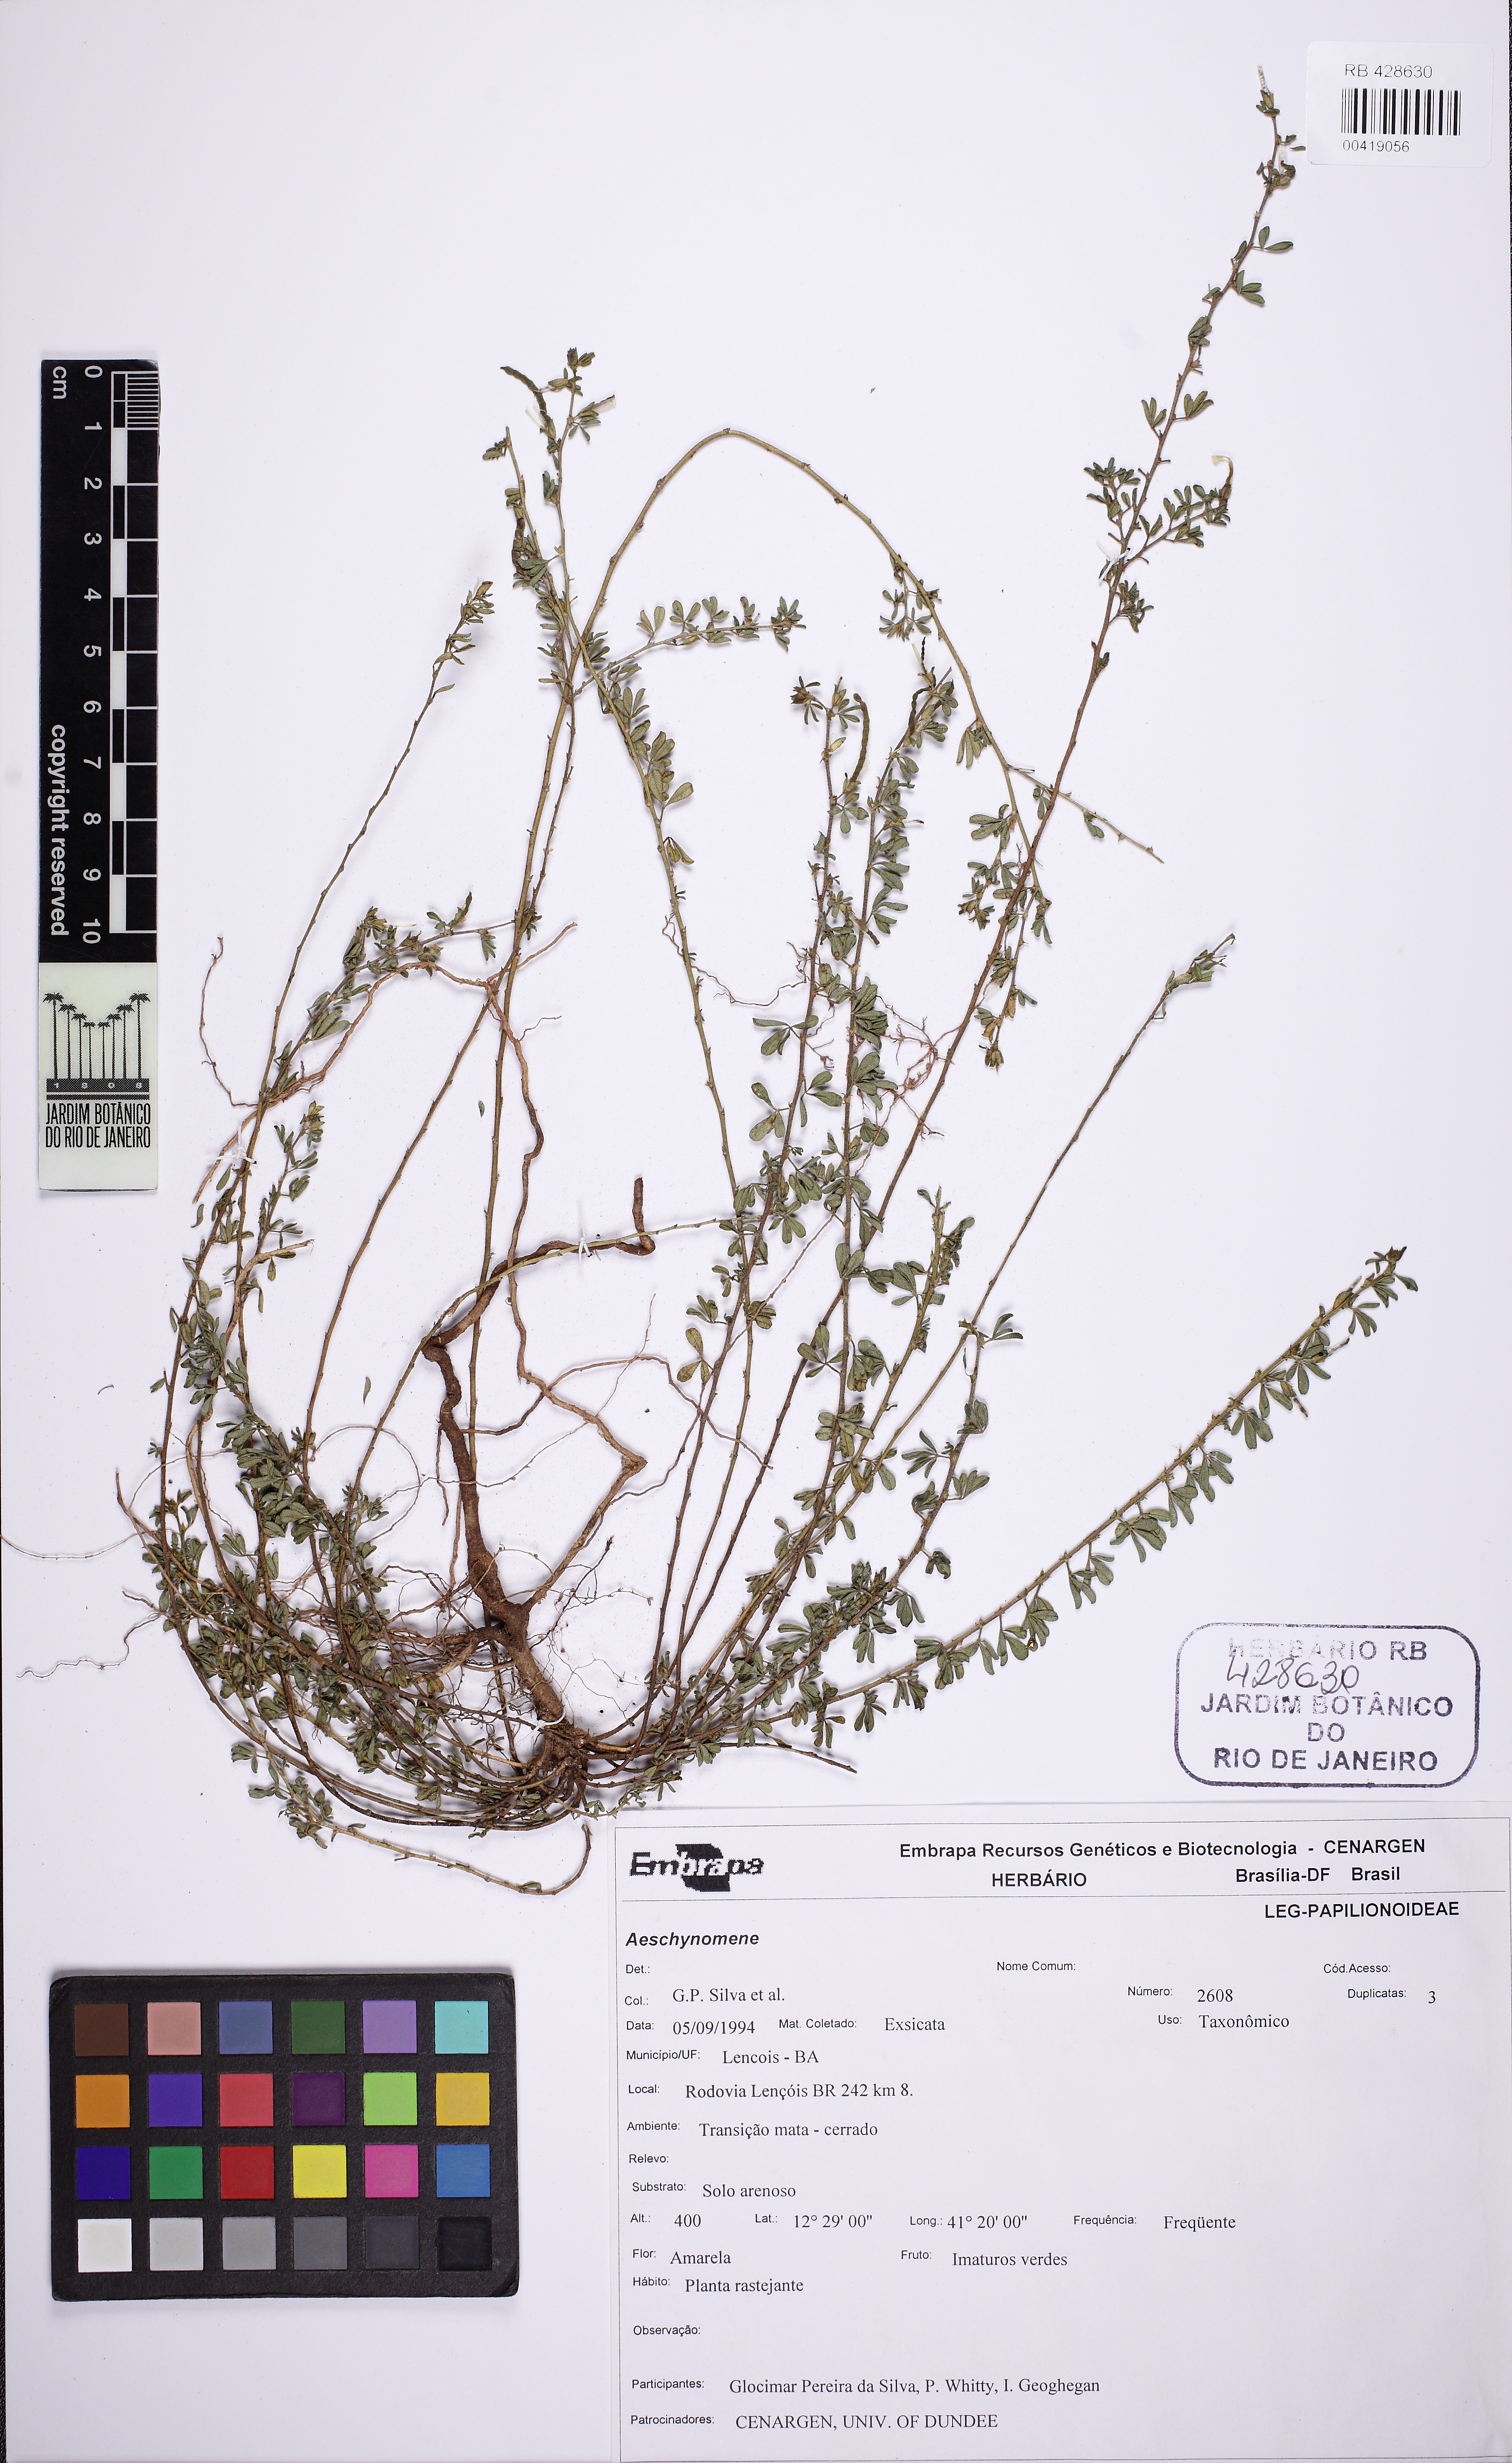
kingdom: Plantae
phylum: Tracheophyta
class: Magnoliopsida
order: Fabales
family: Fabaceae
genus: Zornia
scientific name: Zornia myriadena
